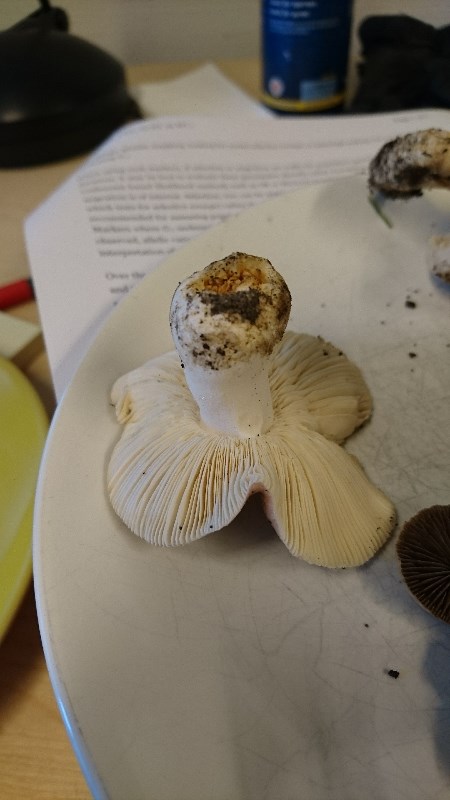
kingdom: Fungi
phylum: Basidiomycota
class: Agaricomycetes
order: Russulales
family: Russulaceae
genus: Russula
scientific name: Russula
